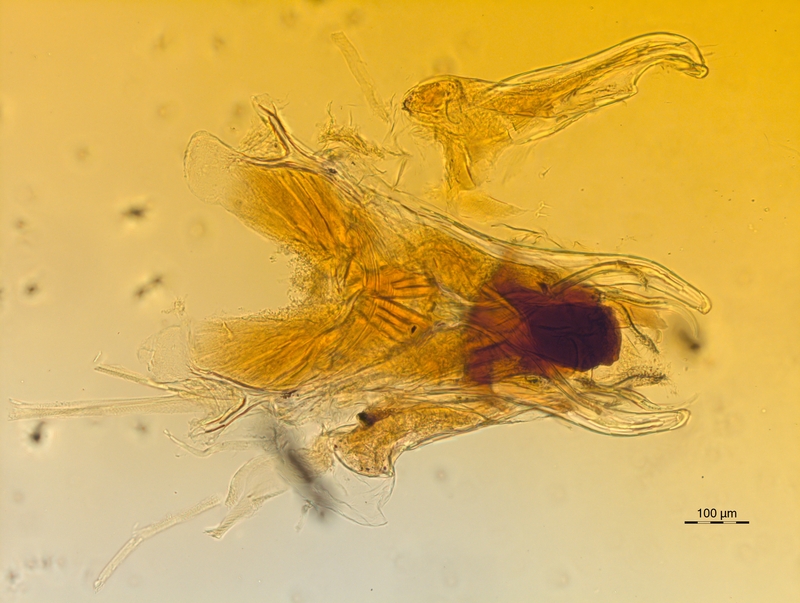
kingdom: Animalia
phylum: Arthropoda
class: Diplopoda
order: Chordeumatida
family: Chordeumatidae
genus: Melogona
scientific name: Melogona broelemanni
